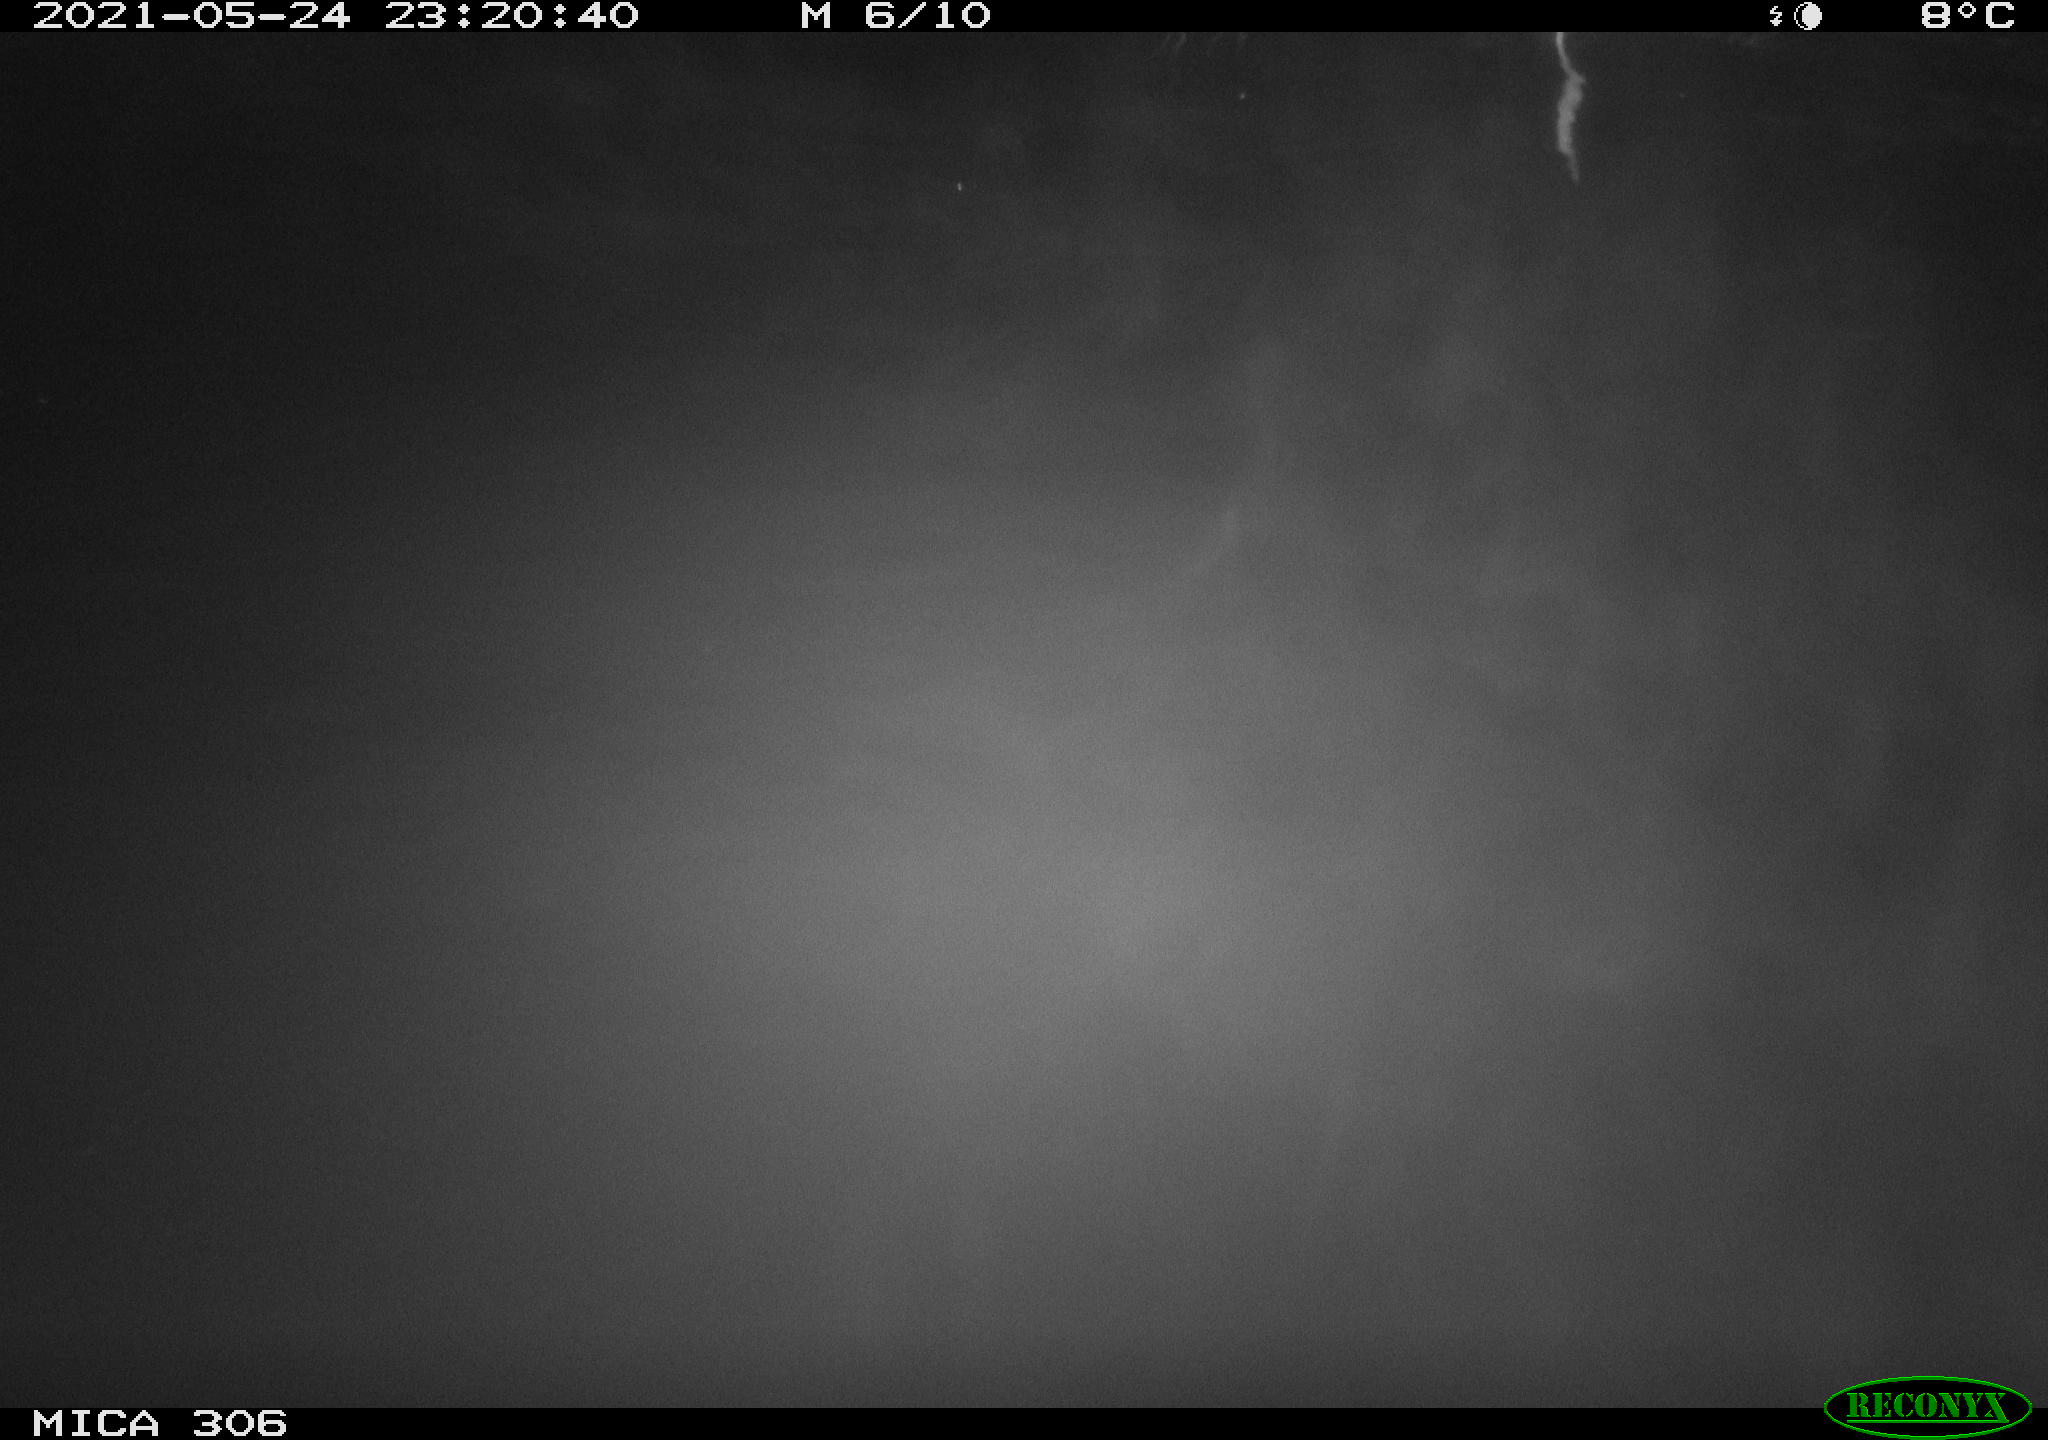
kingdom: Animalia
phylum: Chordata
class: Mammalia
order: Rodentia
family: Cricetidae
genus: Ondatra
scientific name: Ondatra zibethicus
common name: Muskrat
